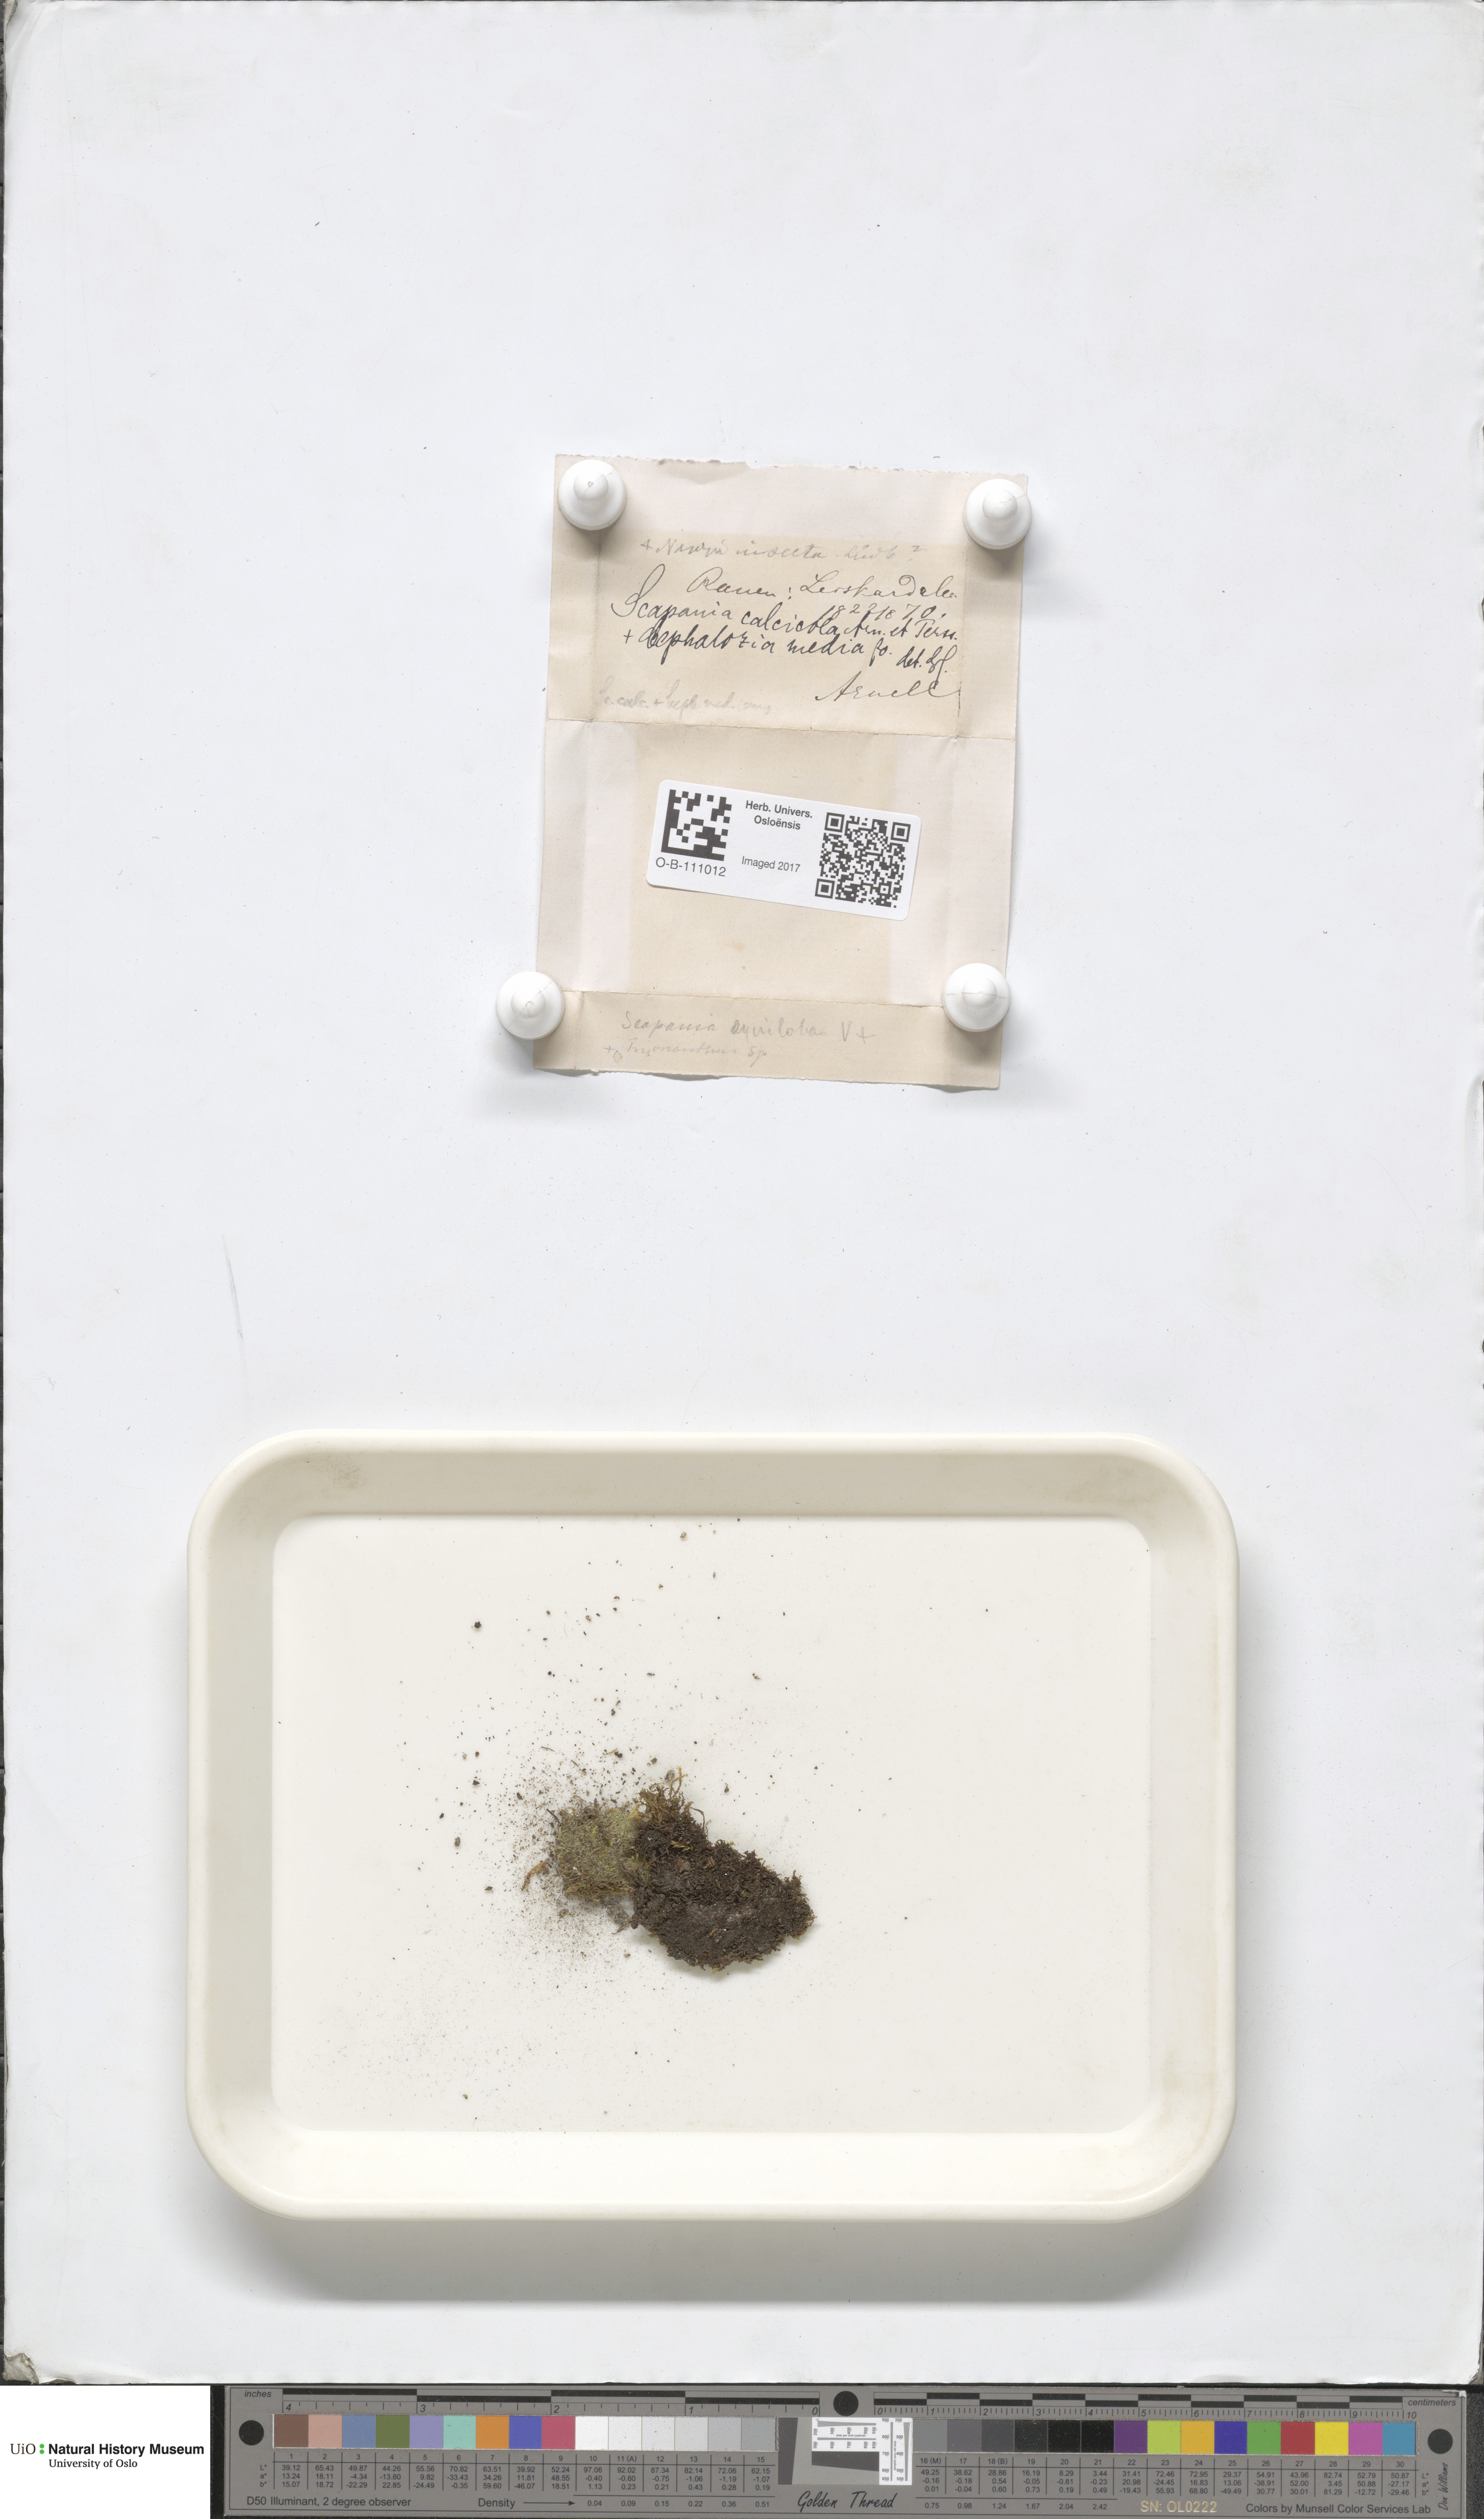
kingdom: Plantae
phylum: Marchantiophyta
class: Jungermanniopsida
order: Jungermanniales
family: Scapaniaceae
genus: Scapania
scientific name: Scapania calcicola
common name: Calcicolous earwort
